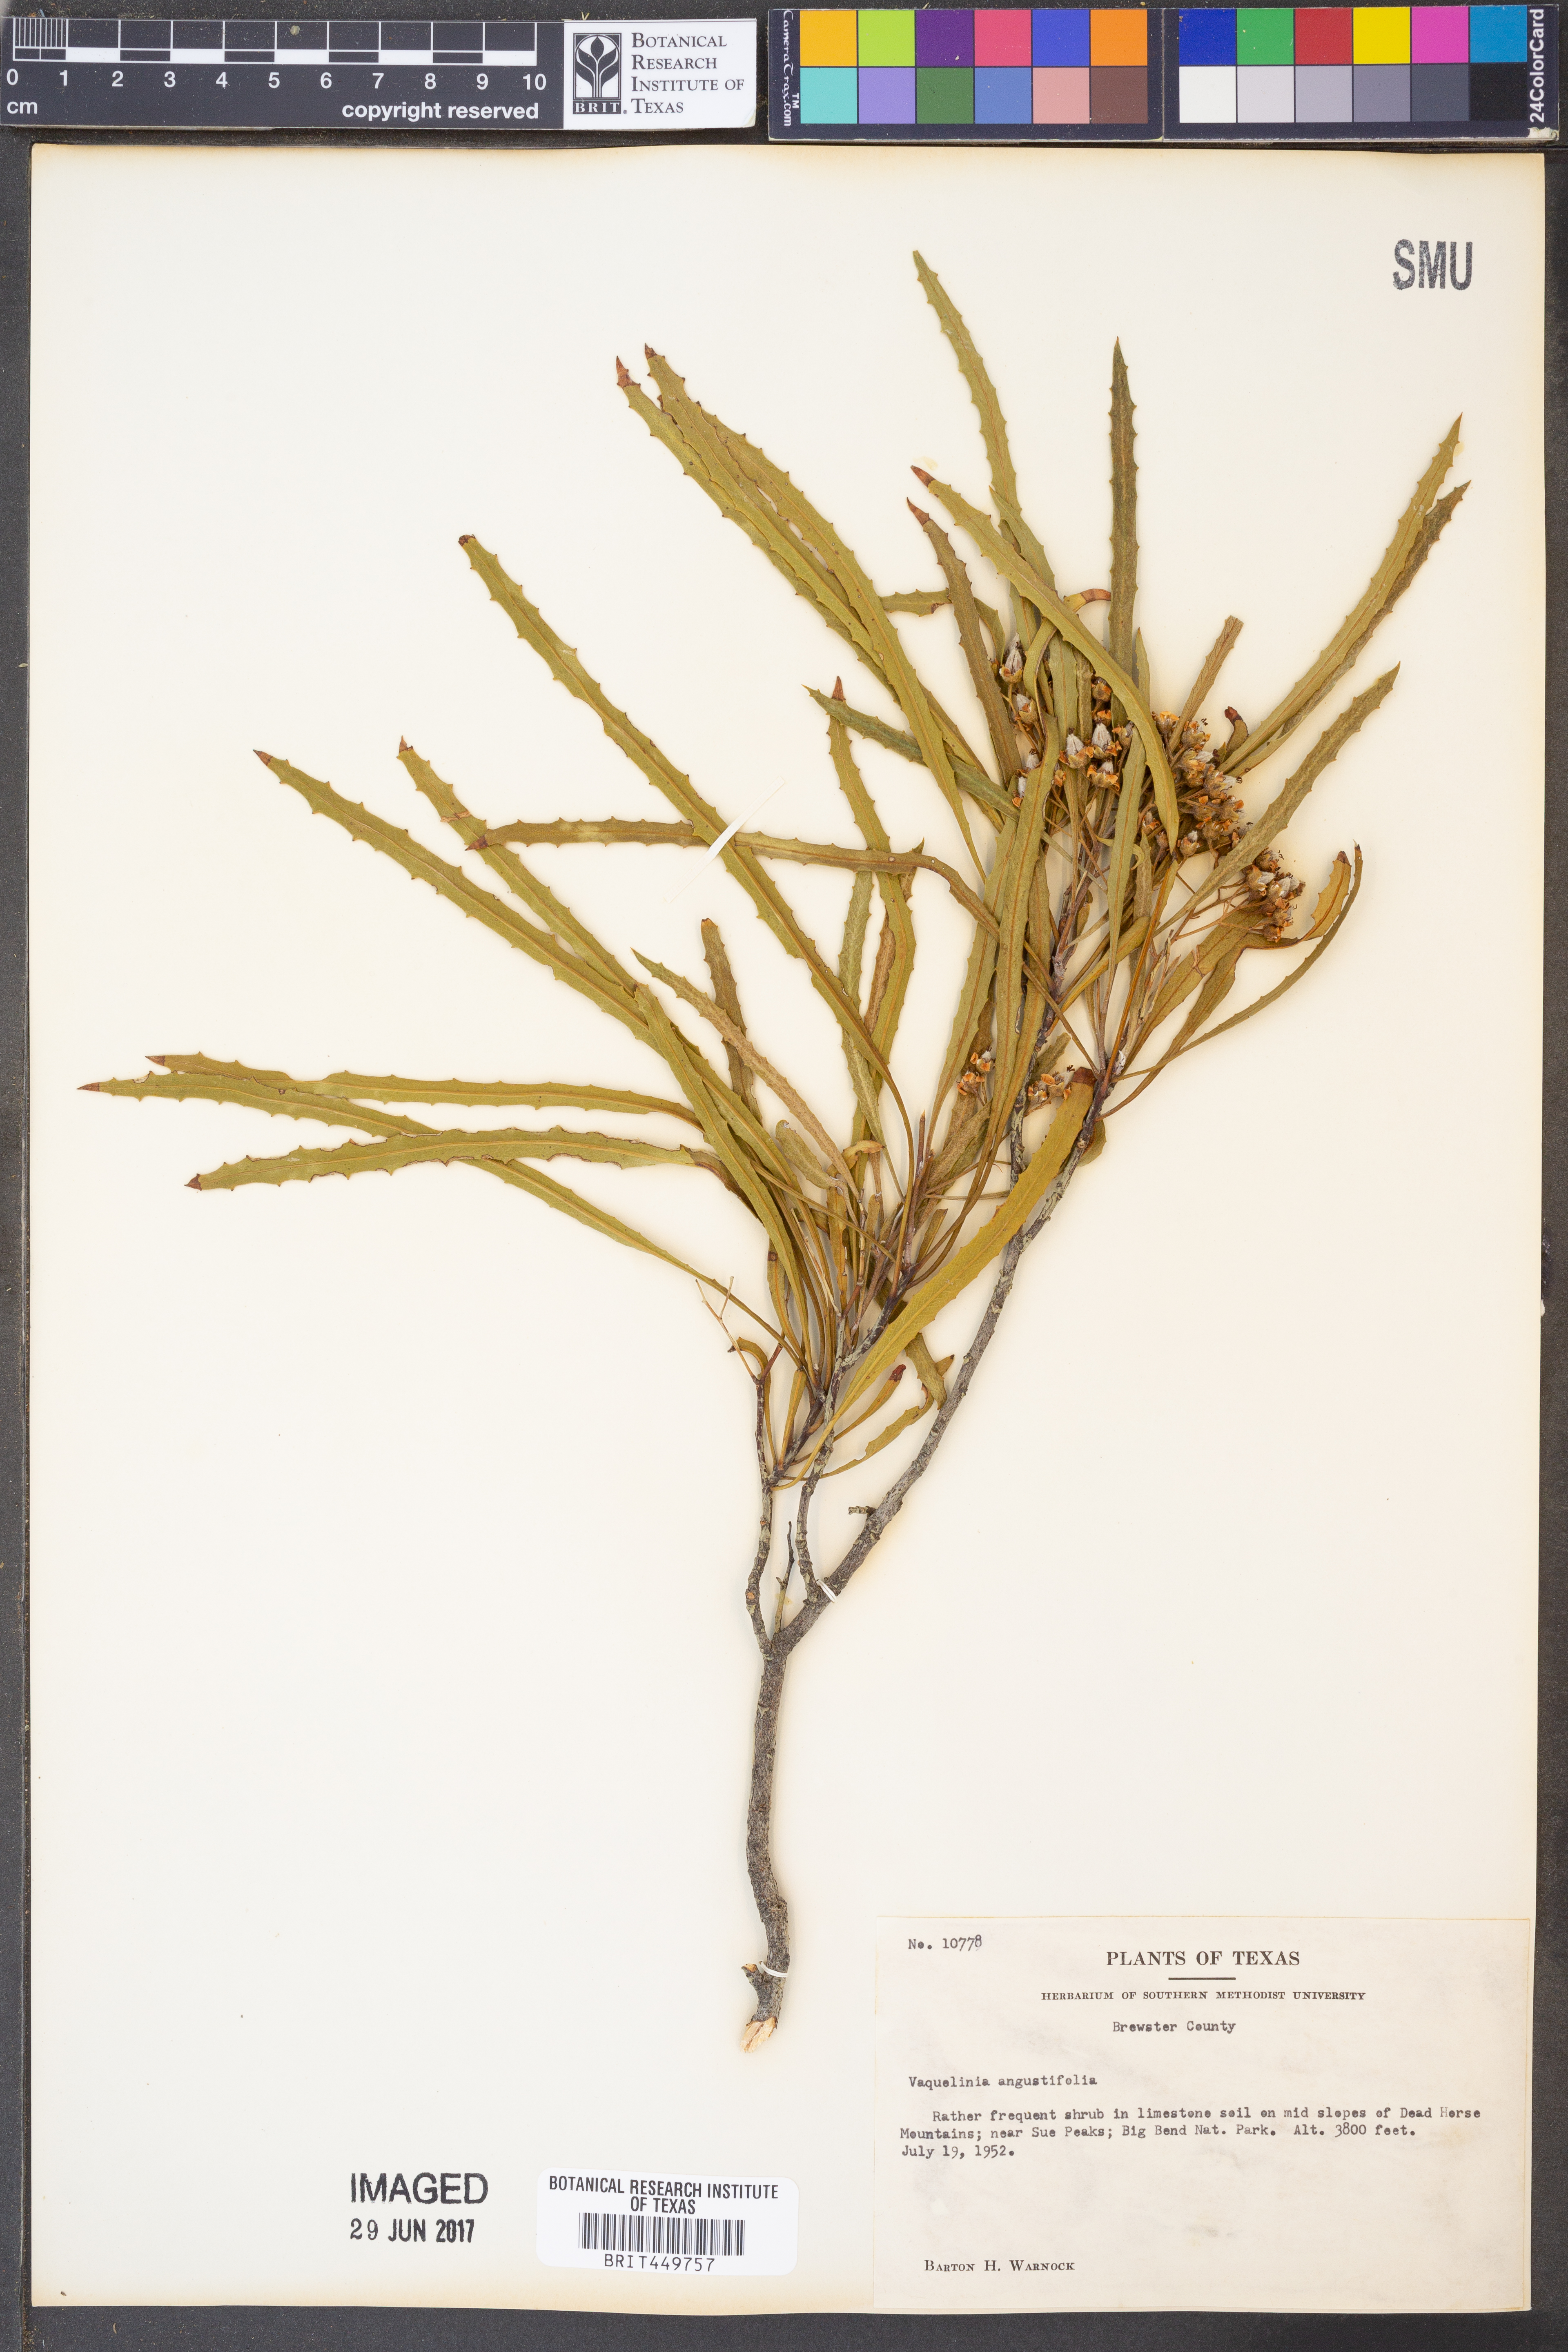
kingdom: Plantae
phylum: Tracheophyta
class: Magnoliopsida
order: Rosales
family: Rosaceae
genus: Vauquelinia
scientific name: Vauquelinia corymbosa
